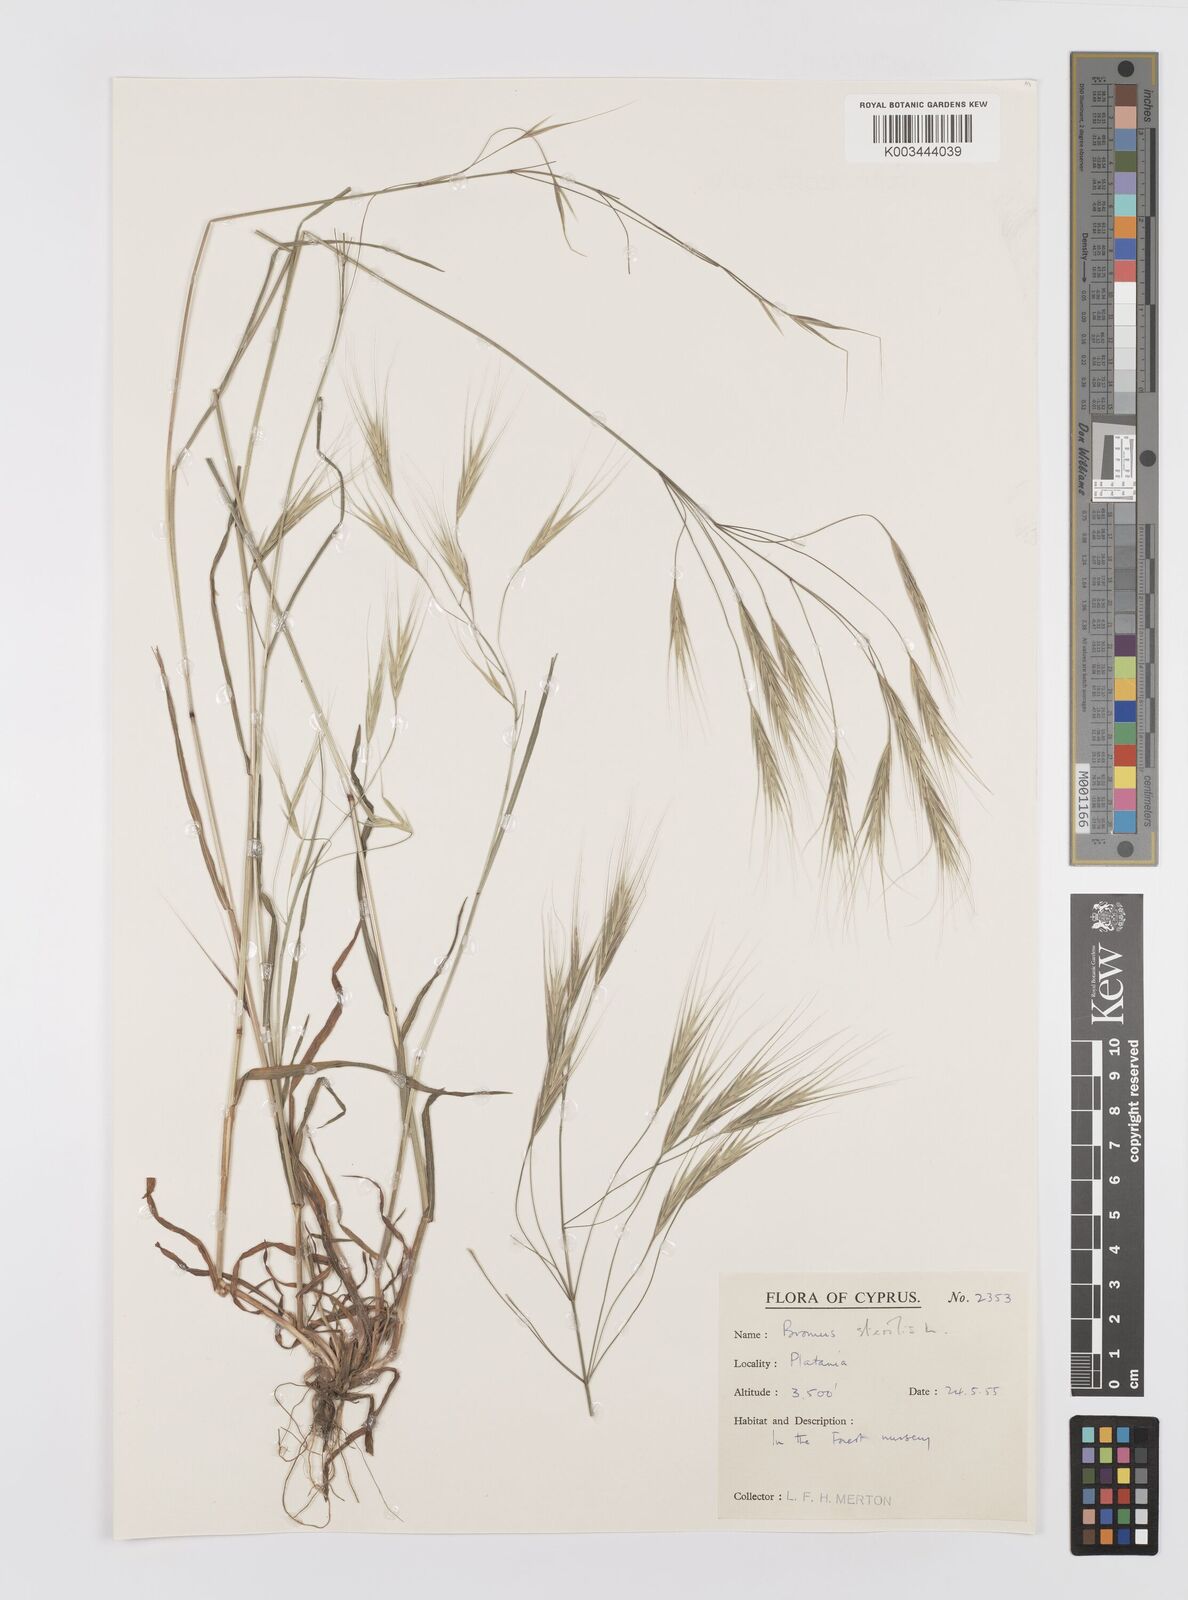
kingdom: Plantae
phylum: Tracheophyta
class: Liliopsida
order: Poales
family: Poaceae
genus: Bromus
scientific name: Bromus sterilis
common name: Poverty brome
